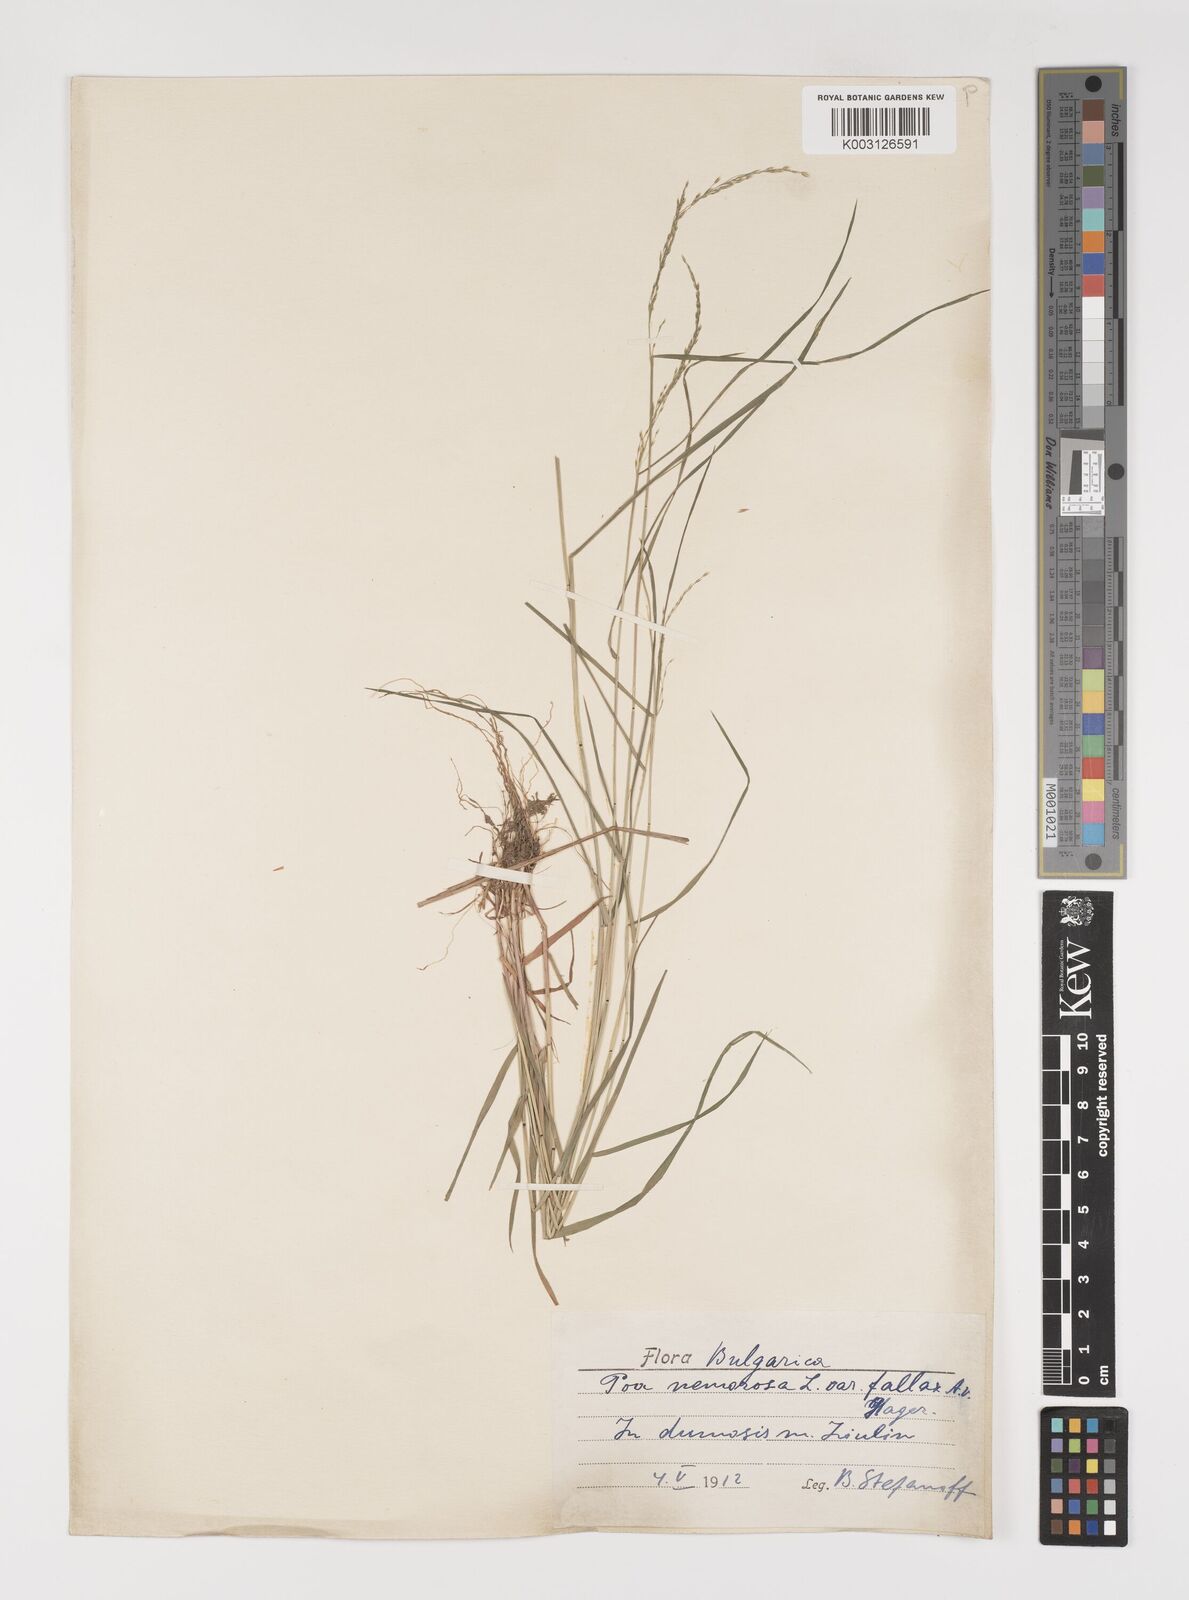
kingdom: Plantae
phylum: Tracheophyta
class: Liliopsida
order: Poales
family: Poaceae
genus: Poa
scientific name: Poa nemoralis
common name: Wood bluegrass
